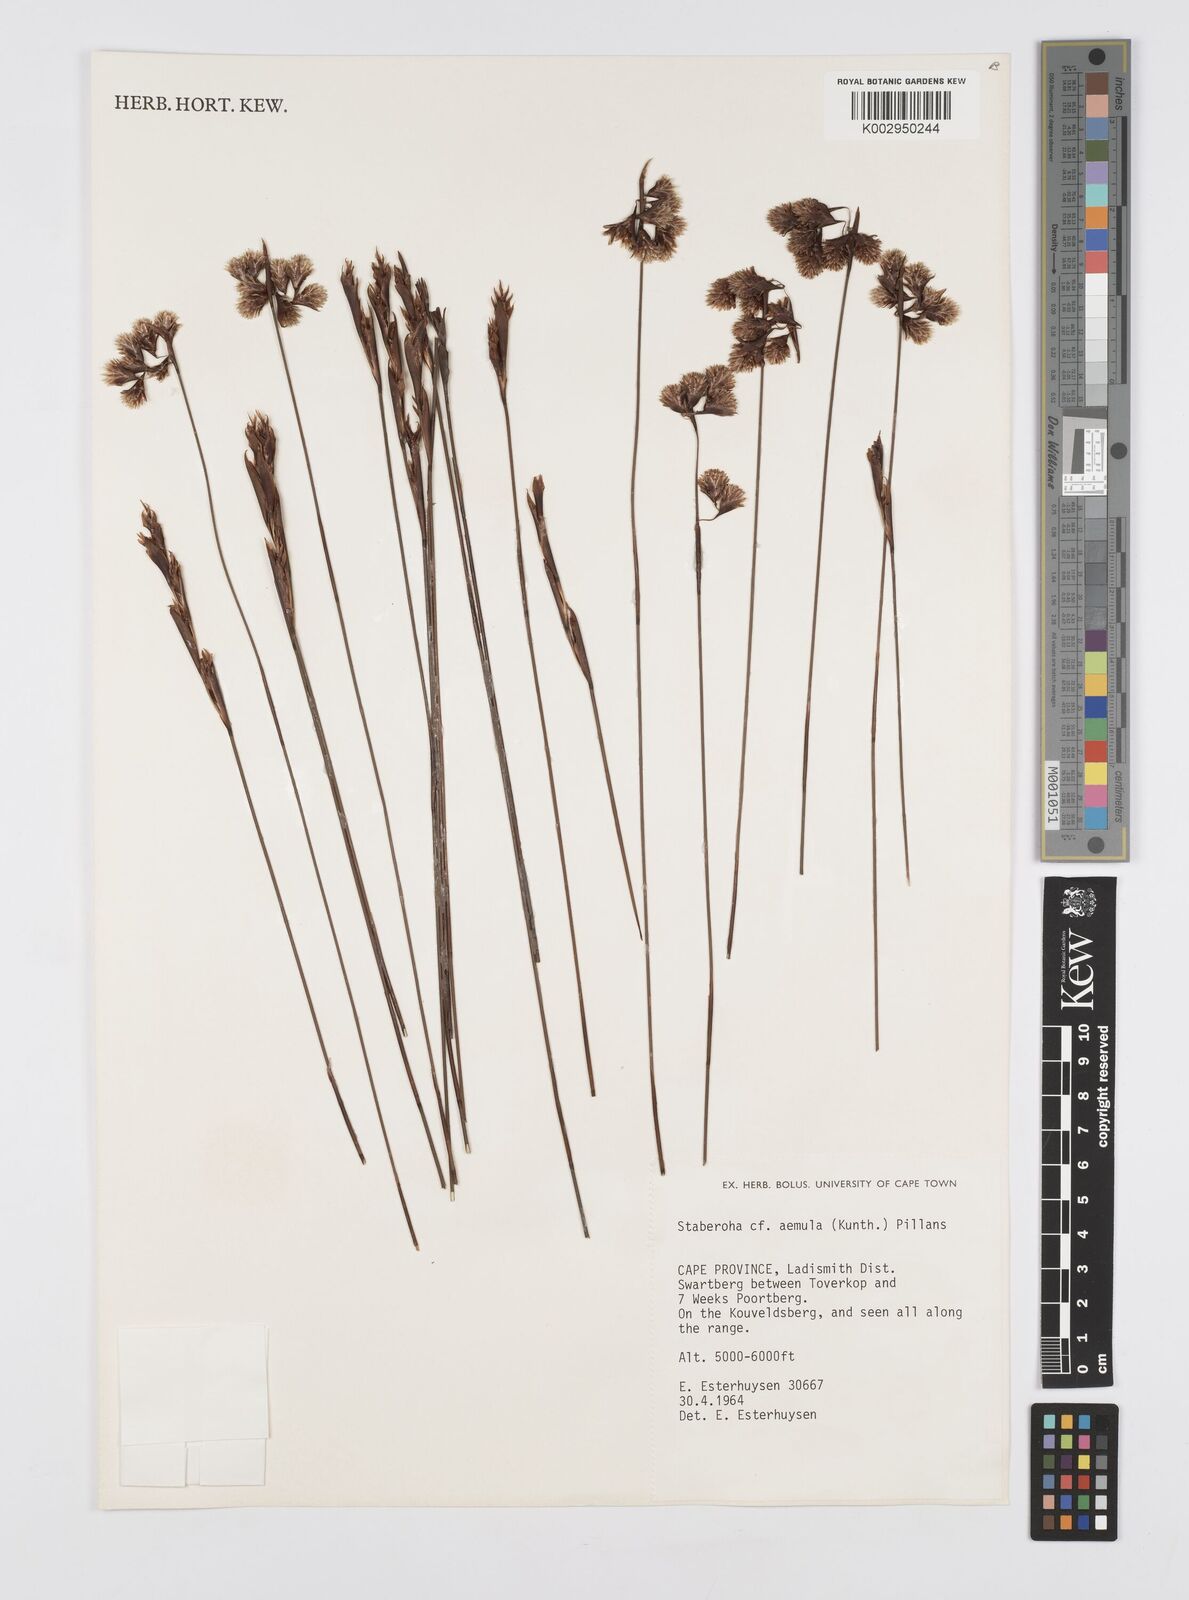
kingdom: Plantae
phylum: Tracheophyta
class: Liliopsida
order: Poales
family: Restionaceae
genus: Staberoha
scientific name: Staberoha aemula
